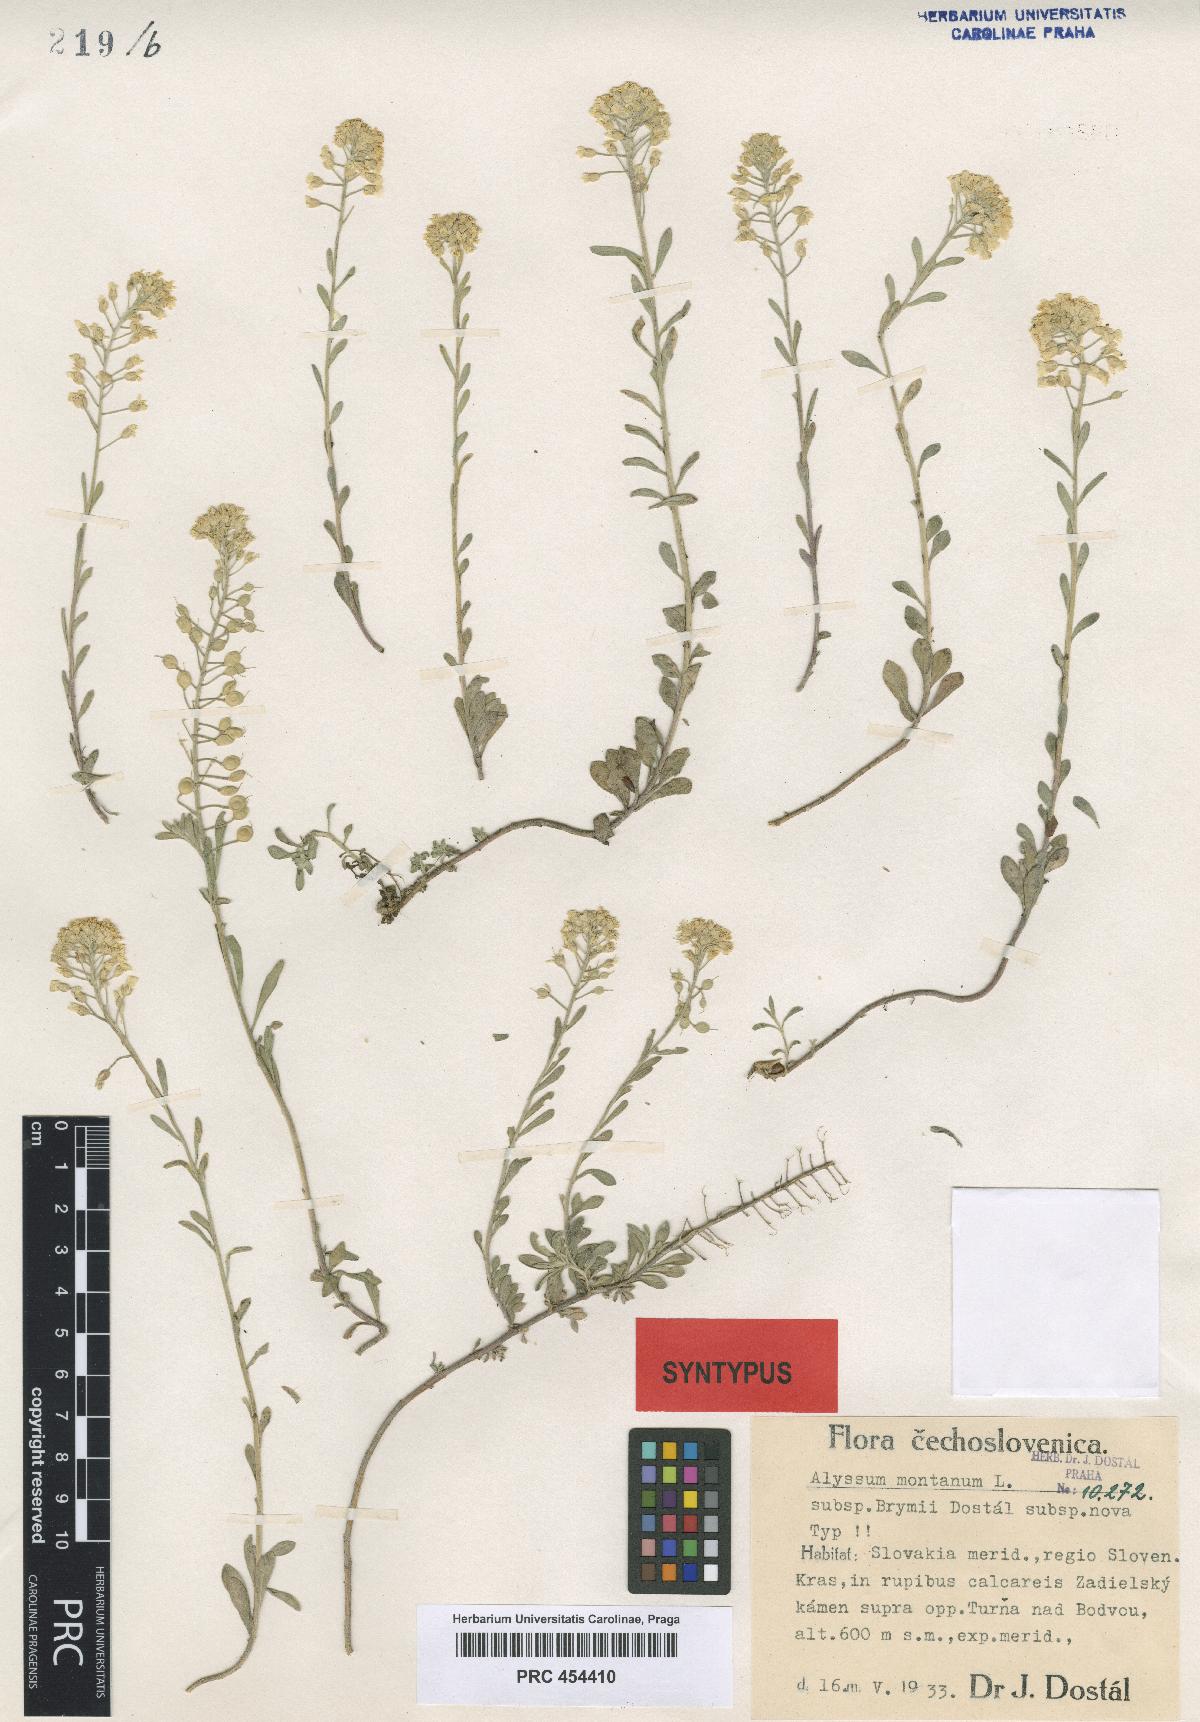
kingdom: Plantae
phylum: Tracheophyta
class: Magnoliopsida
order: Brassicales
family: Brassicaceae
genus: Alyssum
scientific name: Alyssum gmelinii
